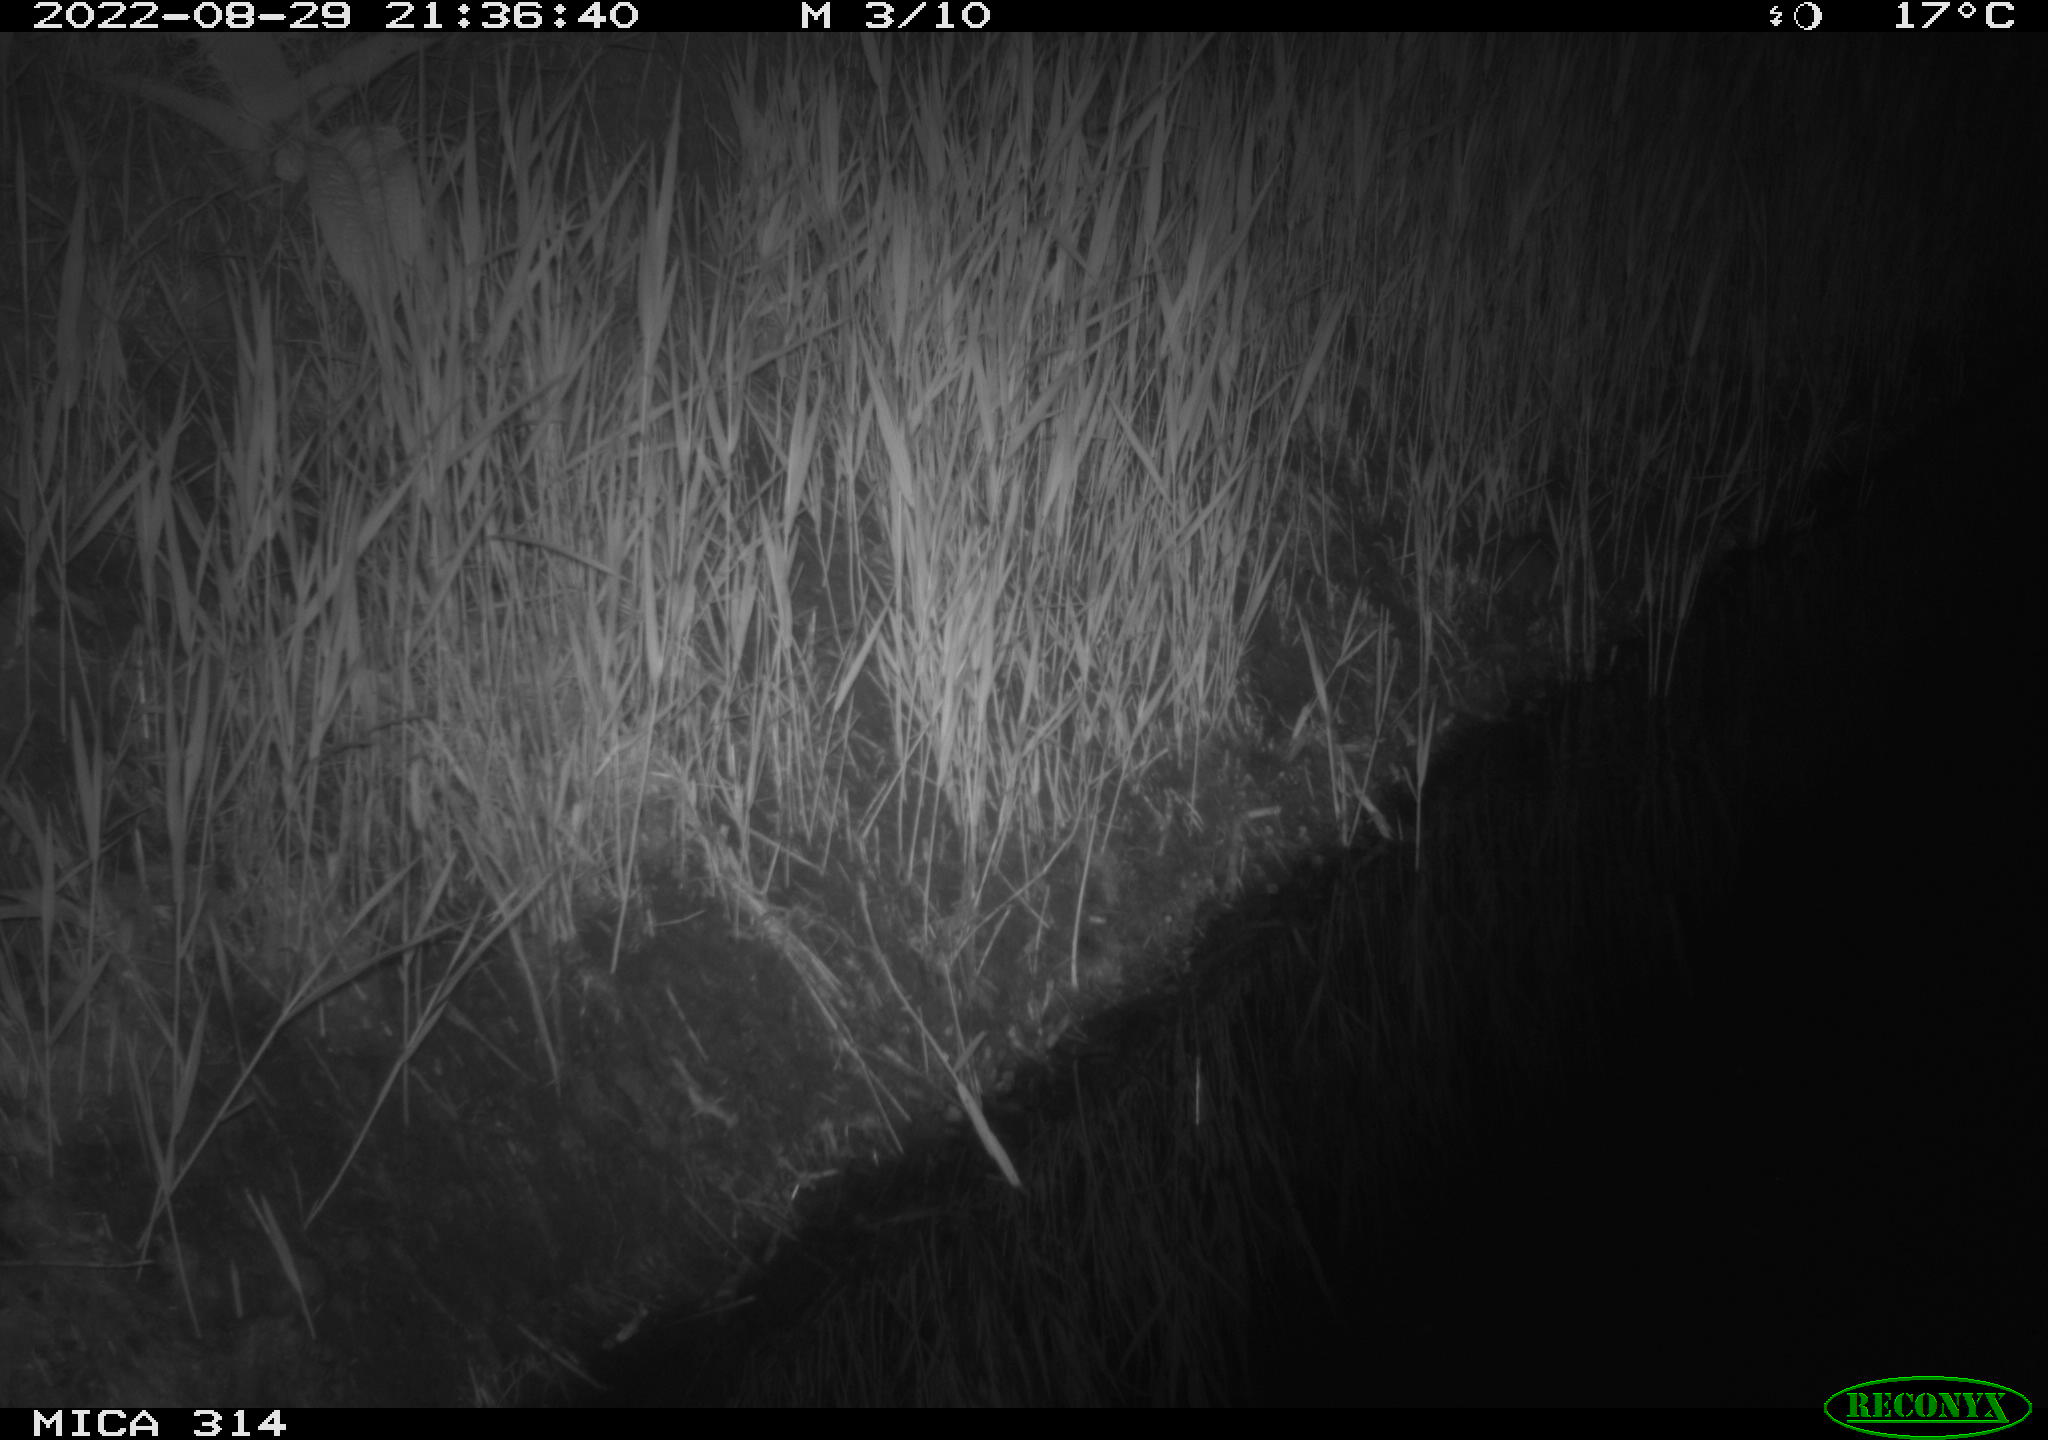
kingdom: Animalia
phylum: Chordata
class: Mammalia
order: Rodentia
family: Muridae
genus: Rattus
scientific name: Rattus norvegicus
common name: Brown rat
